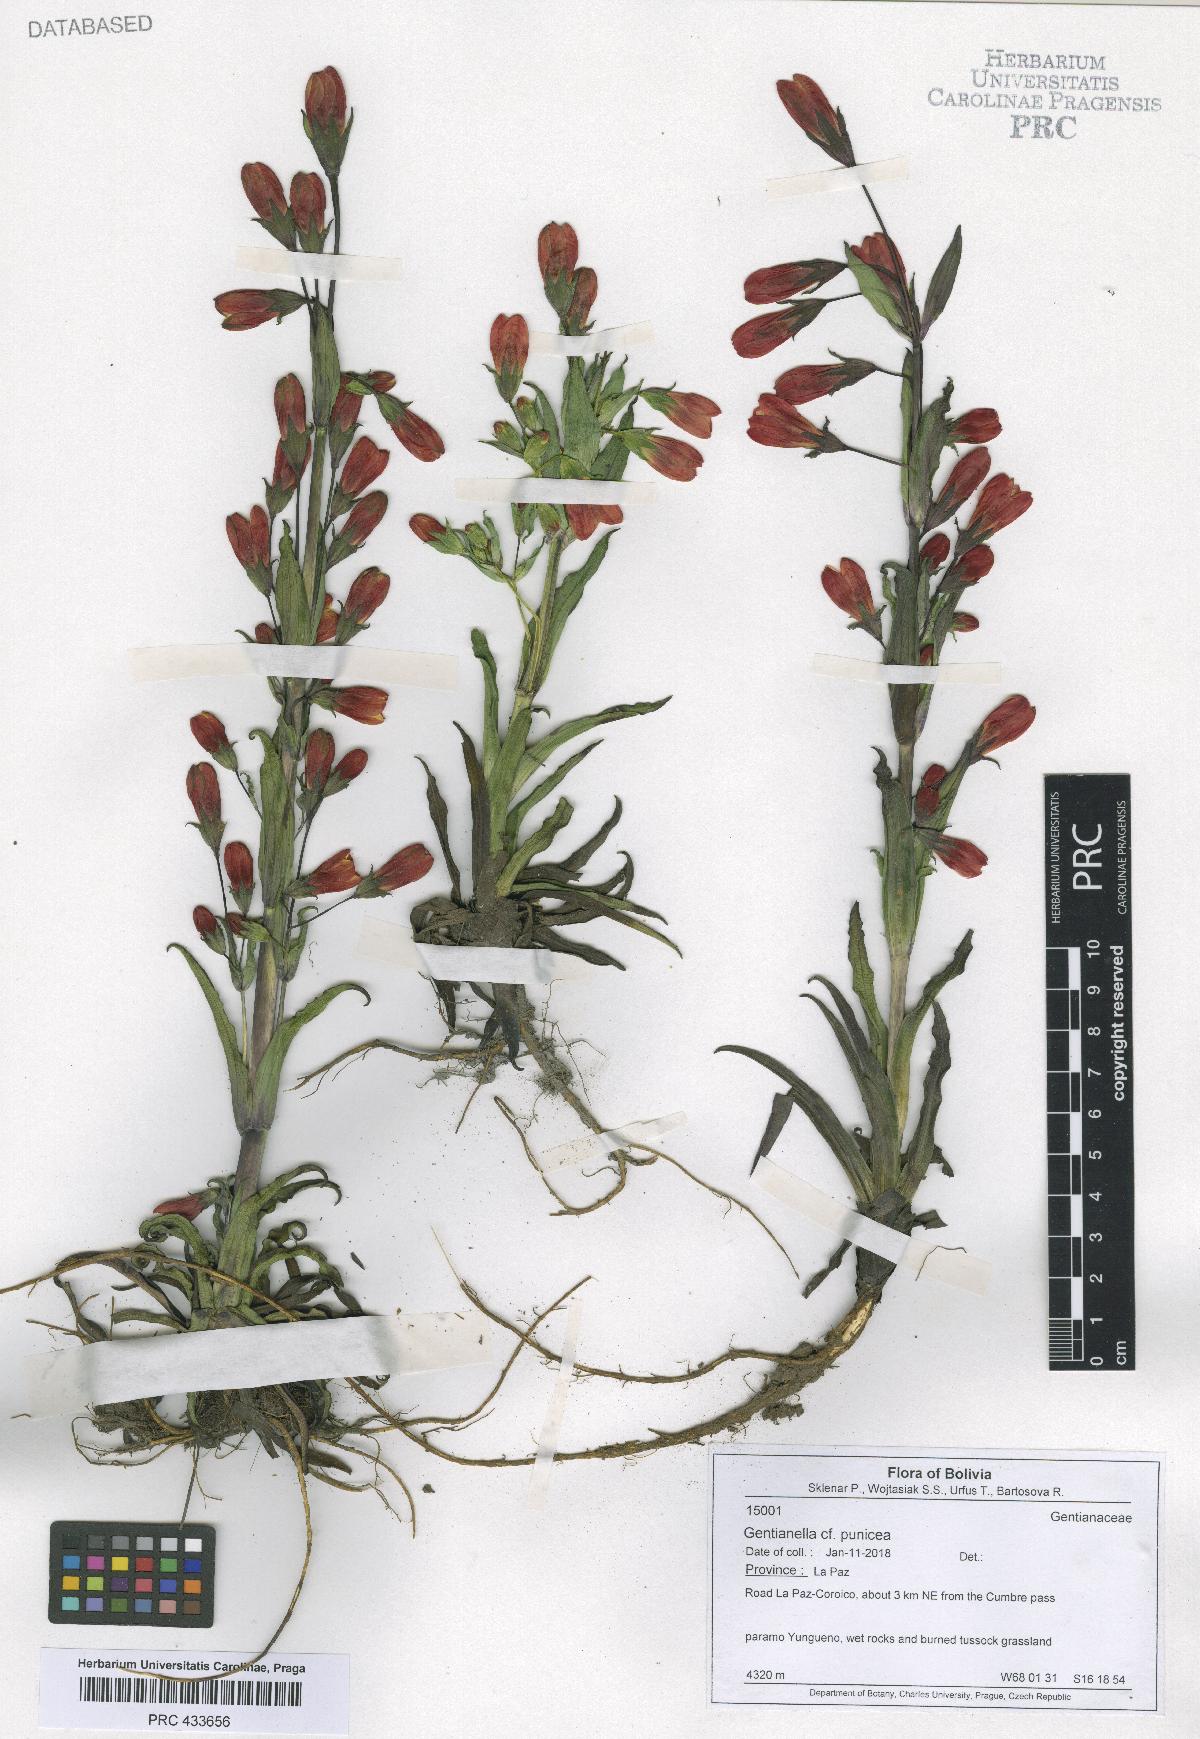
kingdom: Plantae
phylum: Tracheophyta
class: Magnoliopsida
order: Gentianales
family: Gentianaceae
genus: Gentianella
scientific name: Gentianella punicea
